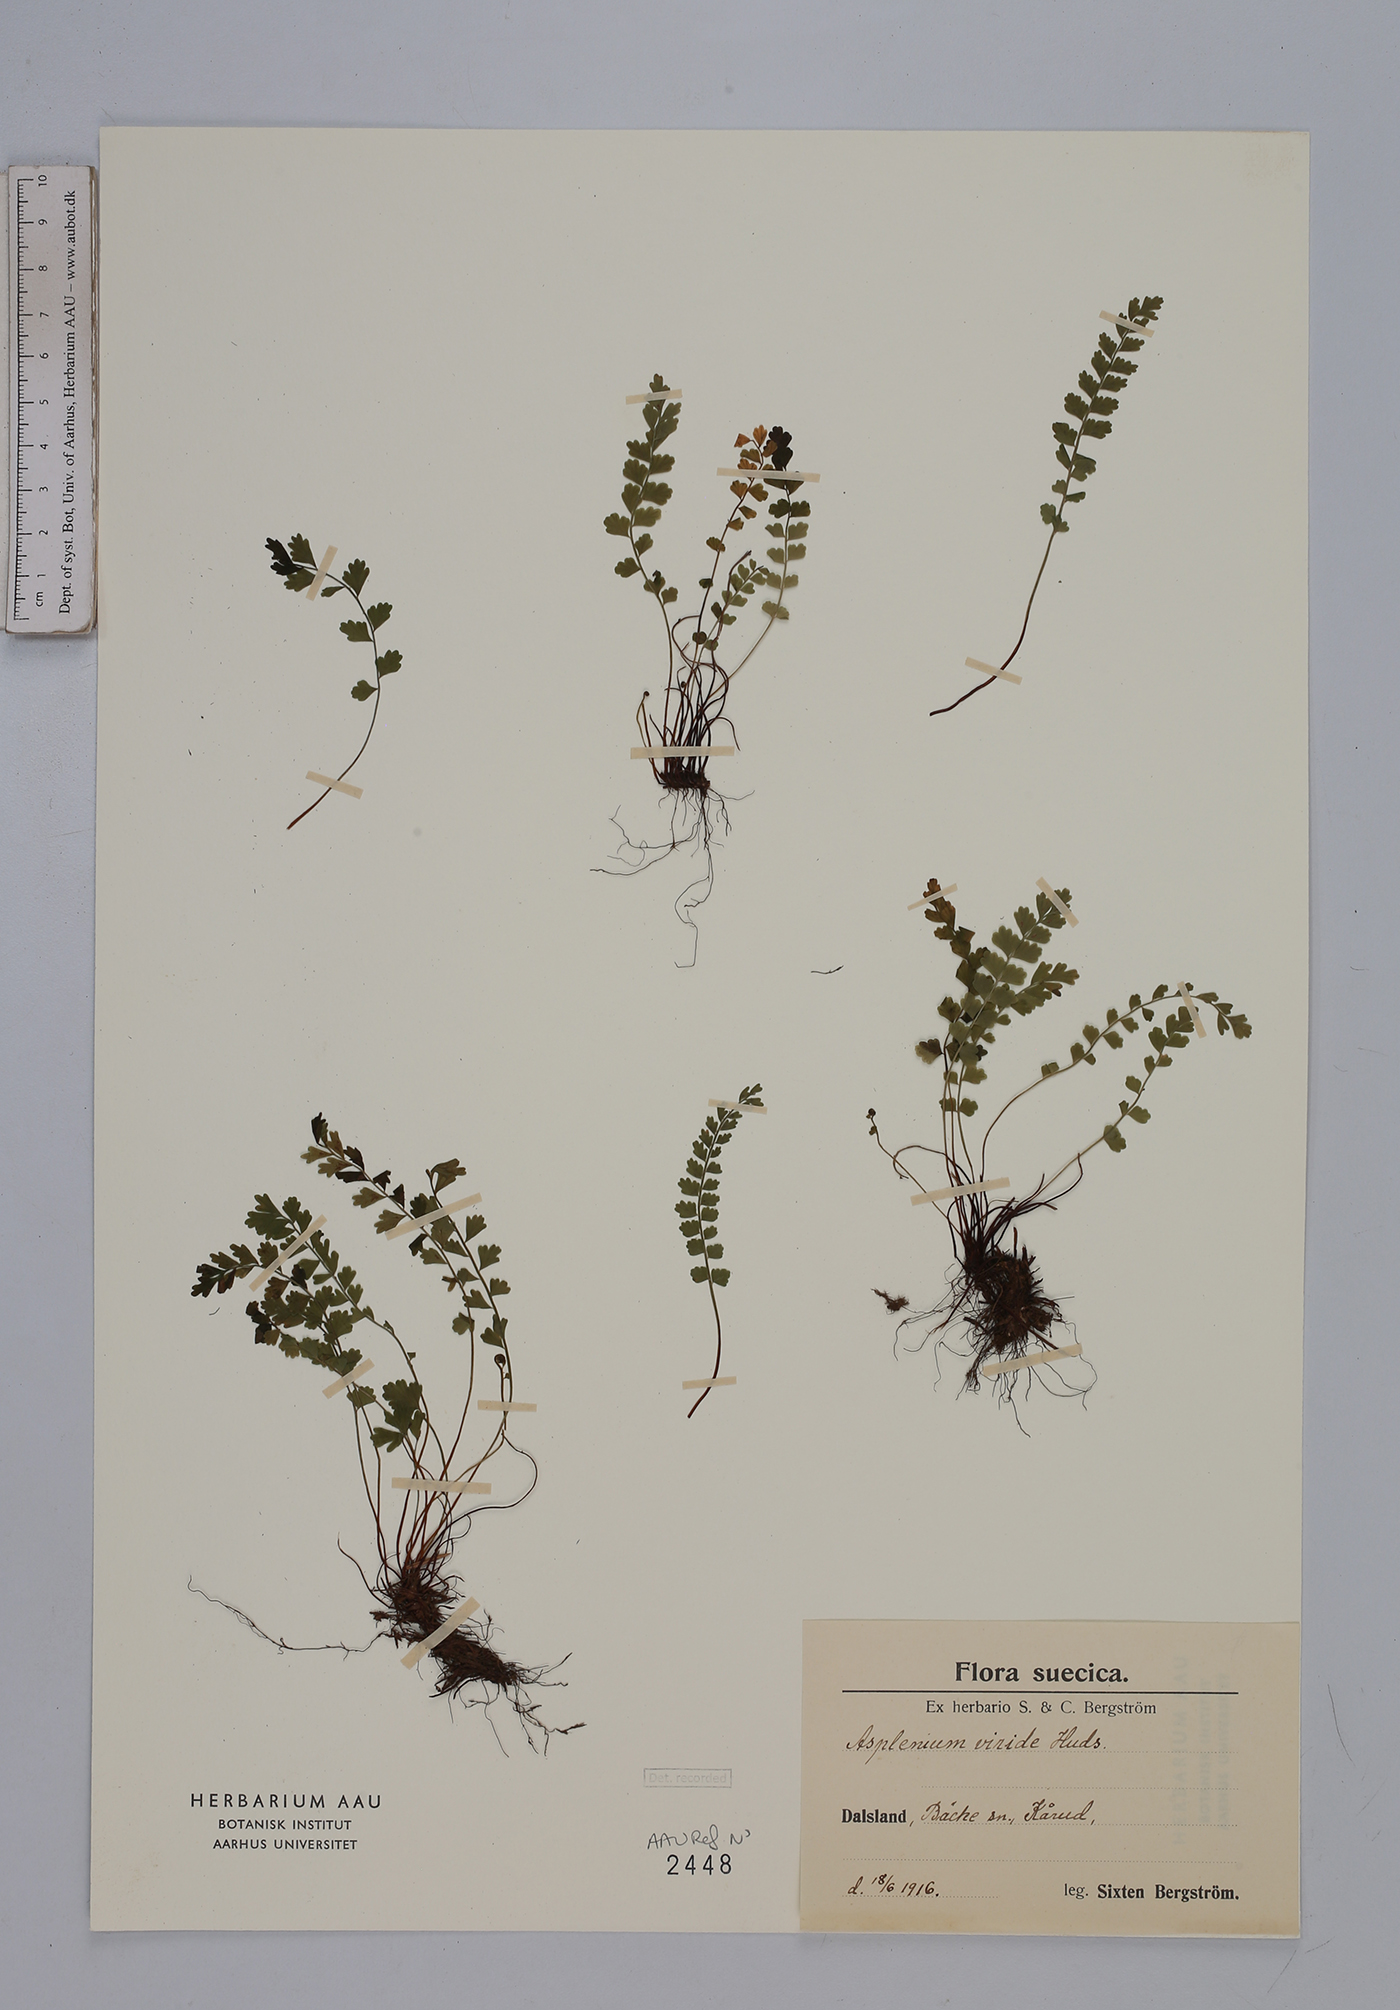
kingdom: Plantae
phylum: Tracheophyta
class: Polypodiopsida
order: Polypodiales
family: Aspleniaceae
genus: Asplenium
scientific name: Asplenium viride
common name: Green spleenwort
